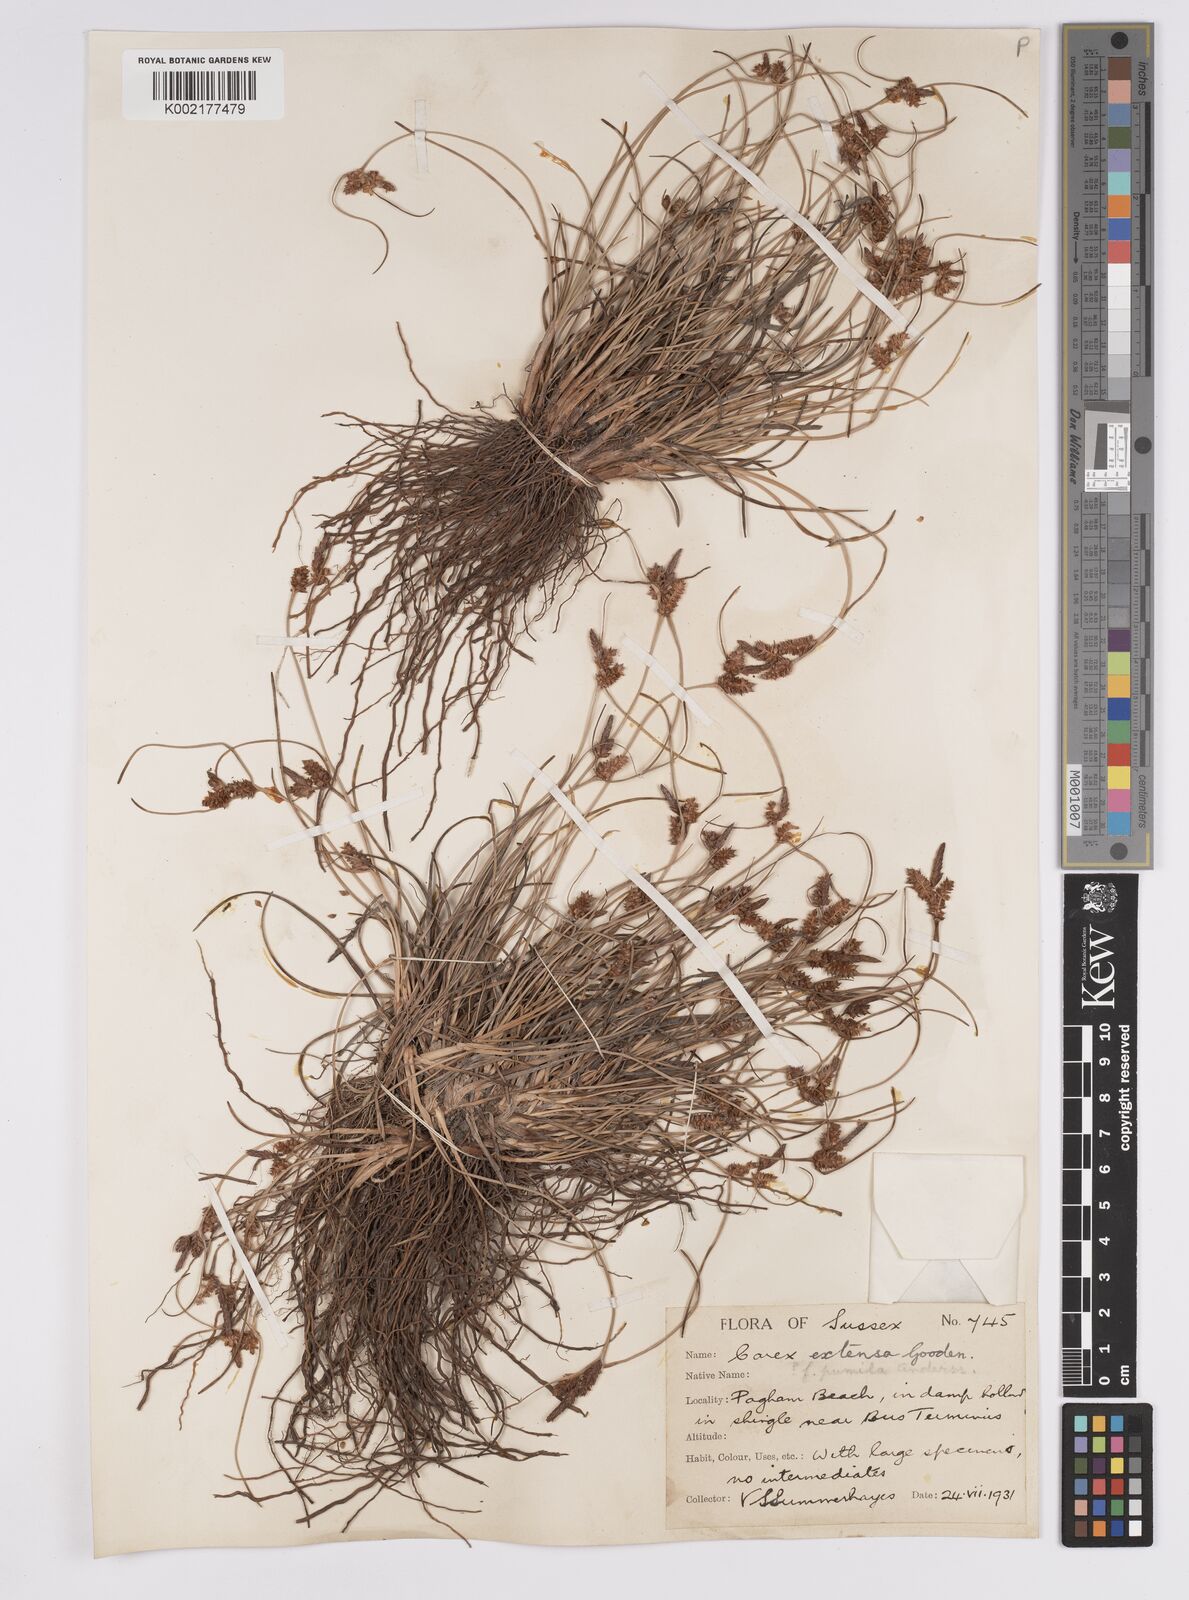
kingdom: Plantae
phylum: Tracheophyta
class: Liliopsida
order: Poales
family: Cyperaceae
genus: Carex
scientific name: Carex extensa
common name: Long-bracted sedge
